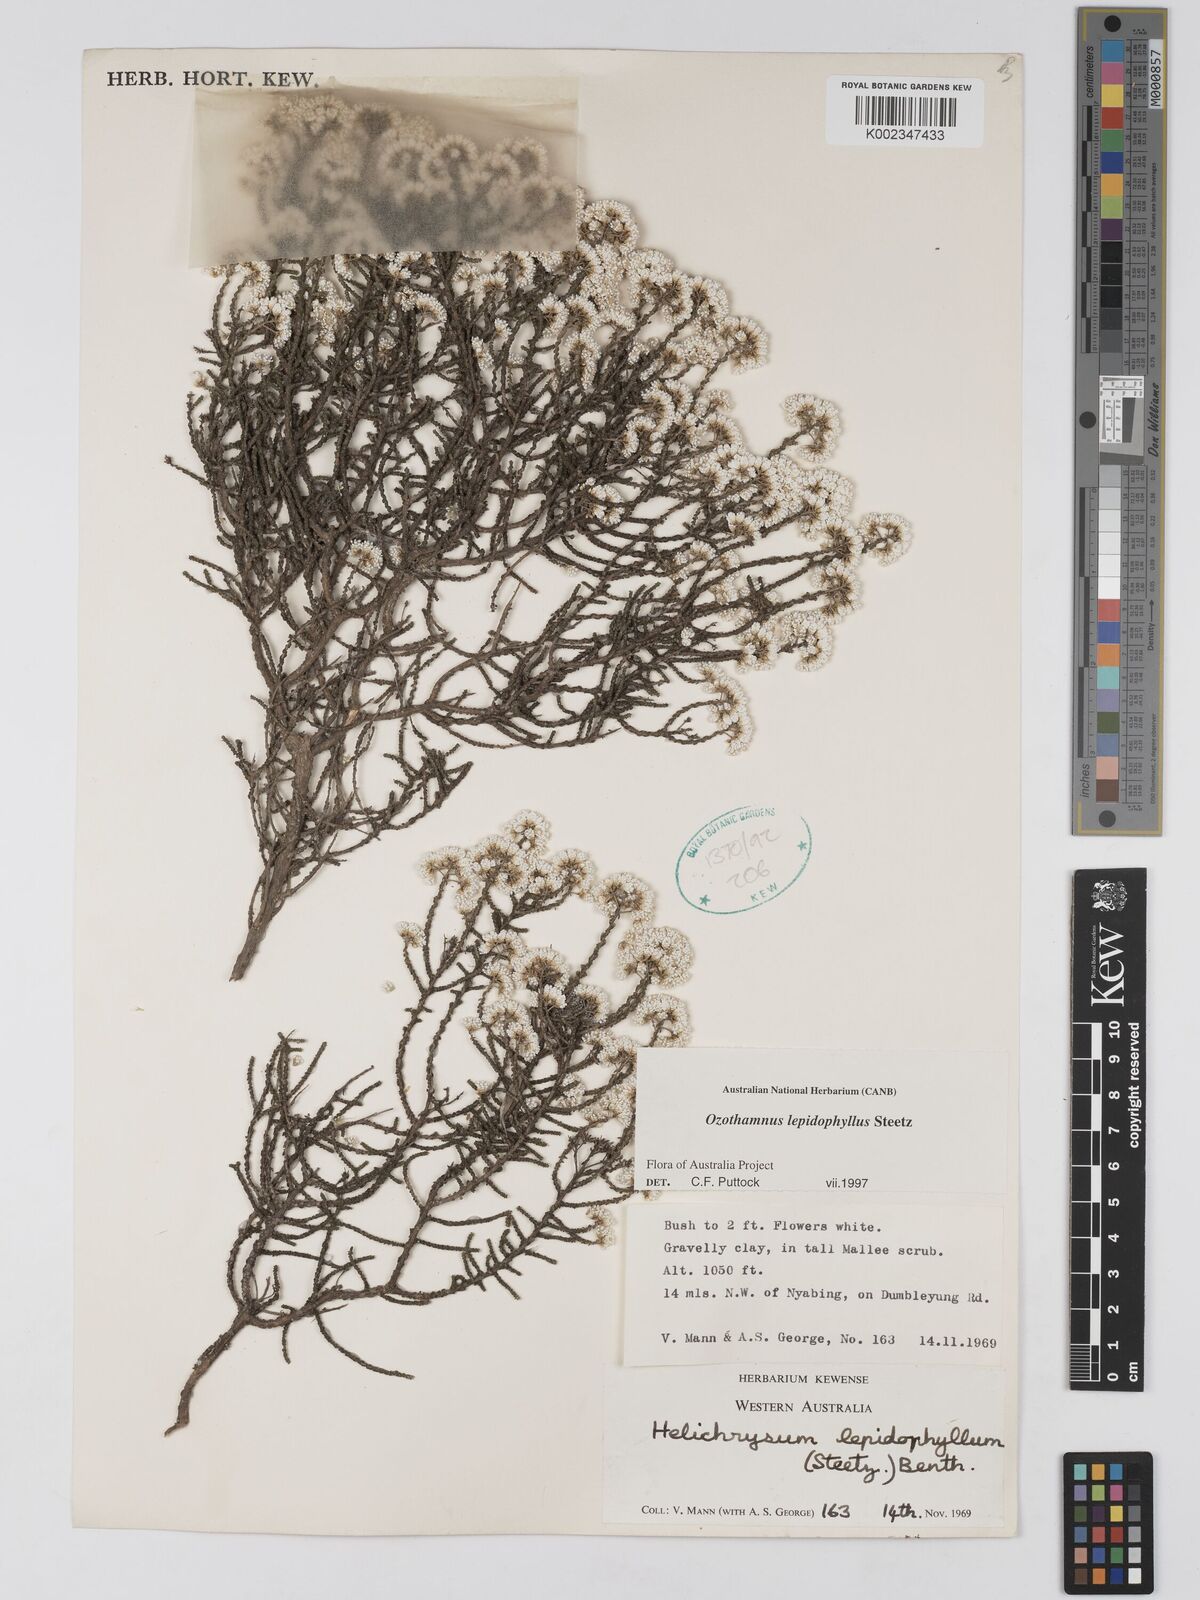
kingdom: Plantae
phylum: Tracheophyta
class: Magnoliopsida
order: Asterales
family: Asteraceae
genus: Ozothamnus
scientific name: Ozothamnus lepidophyllus
